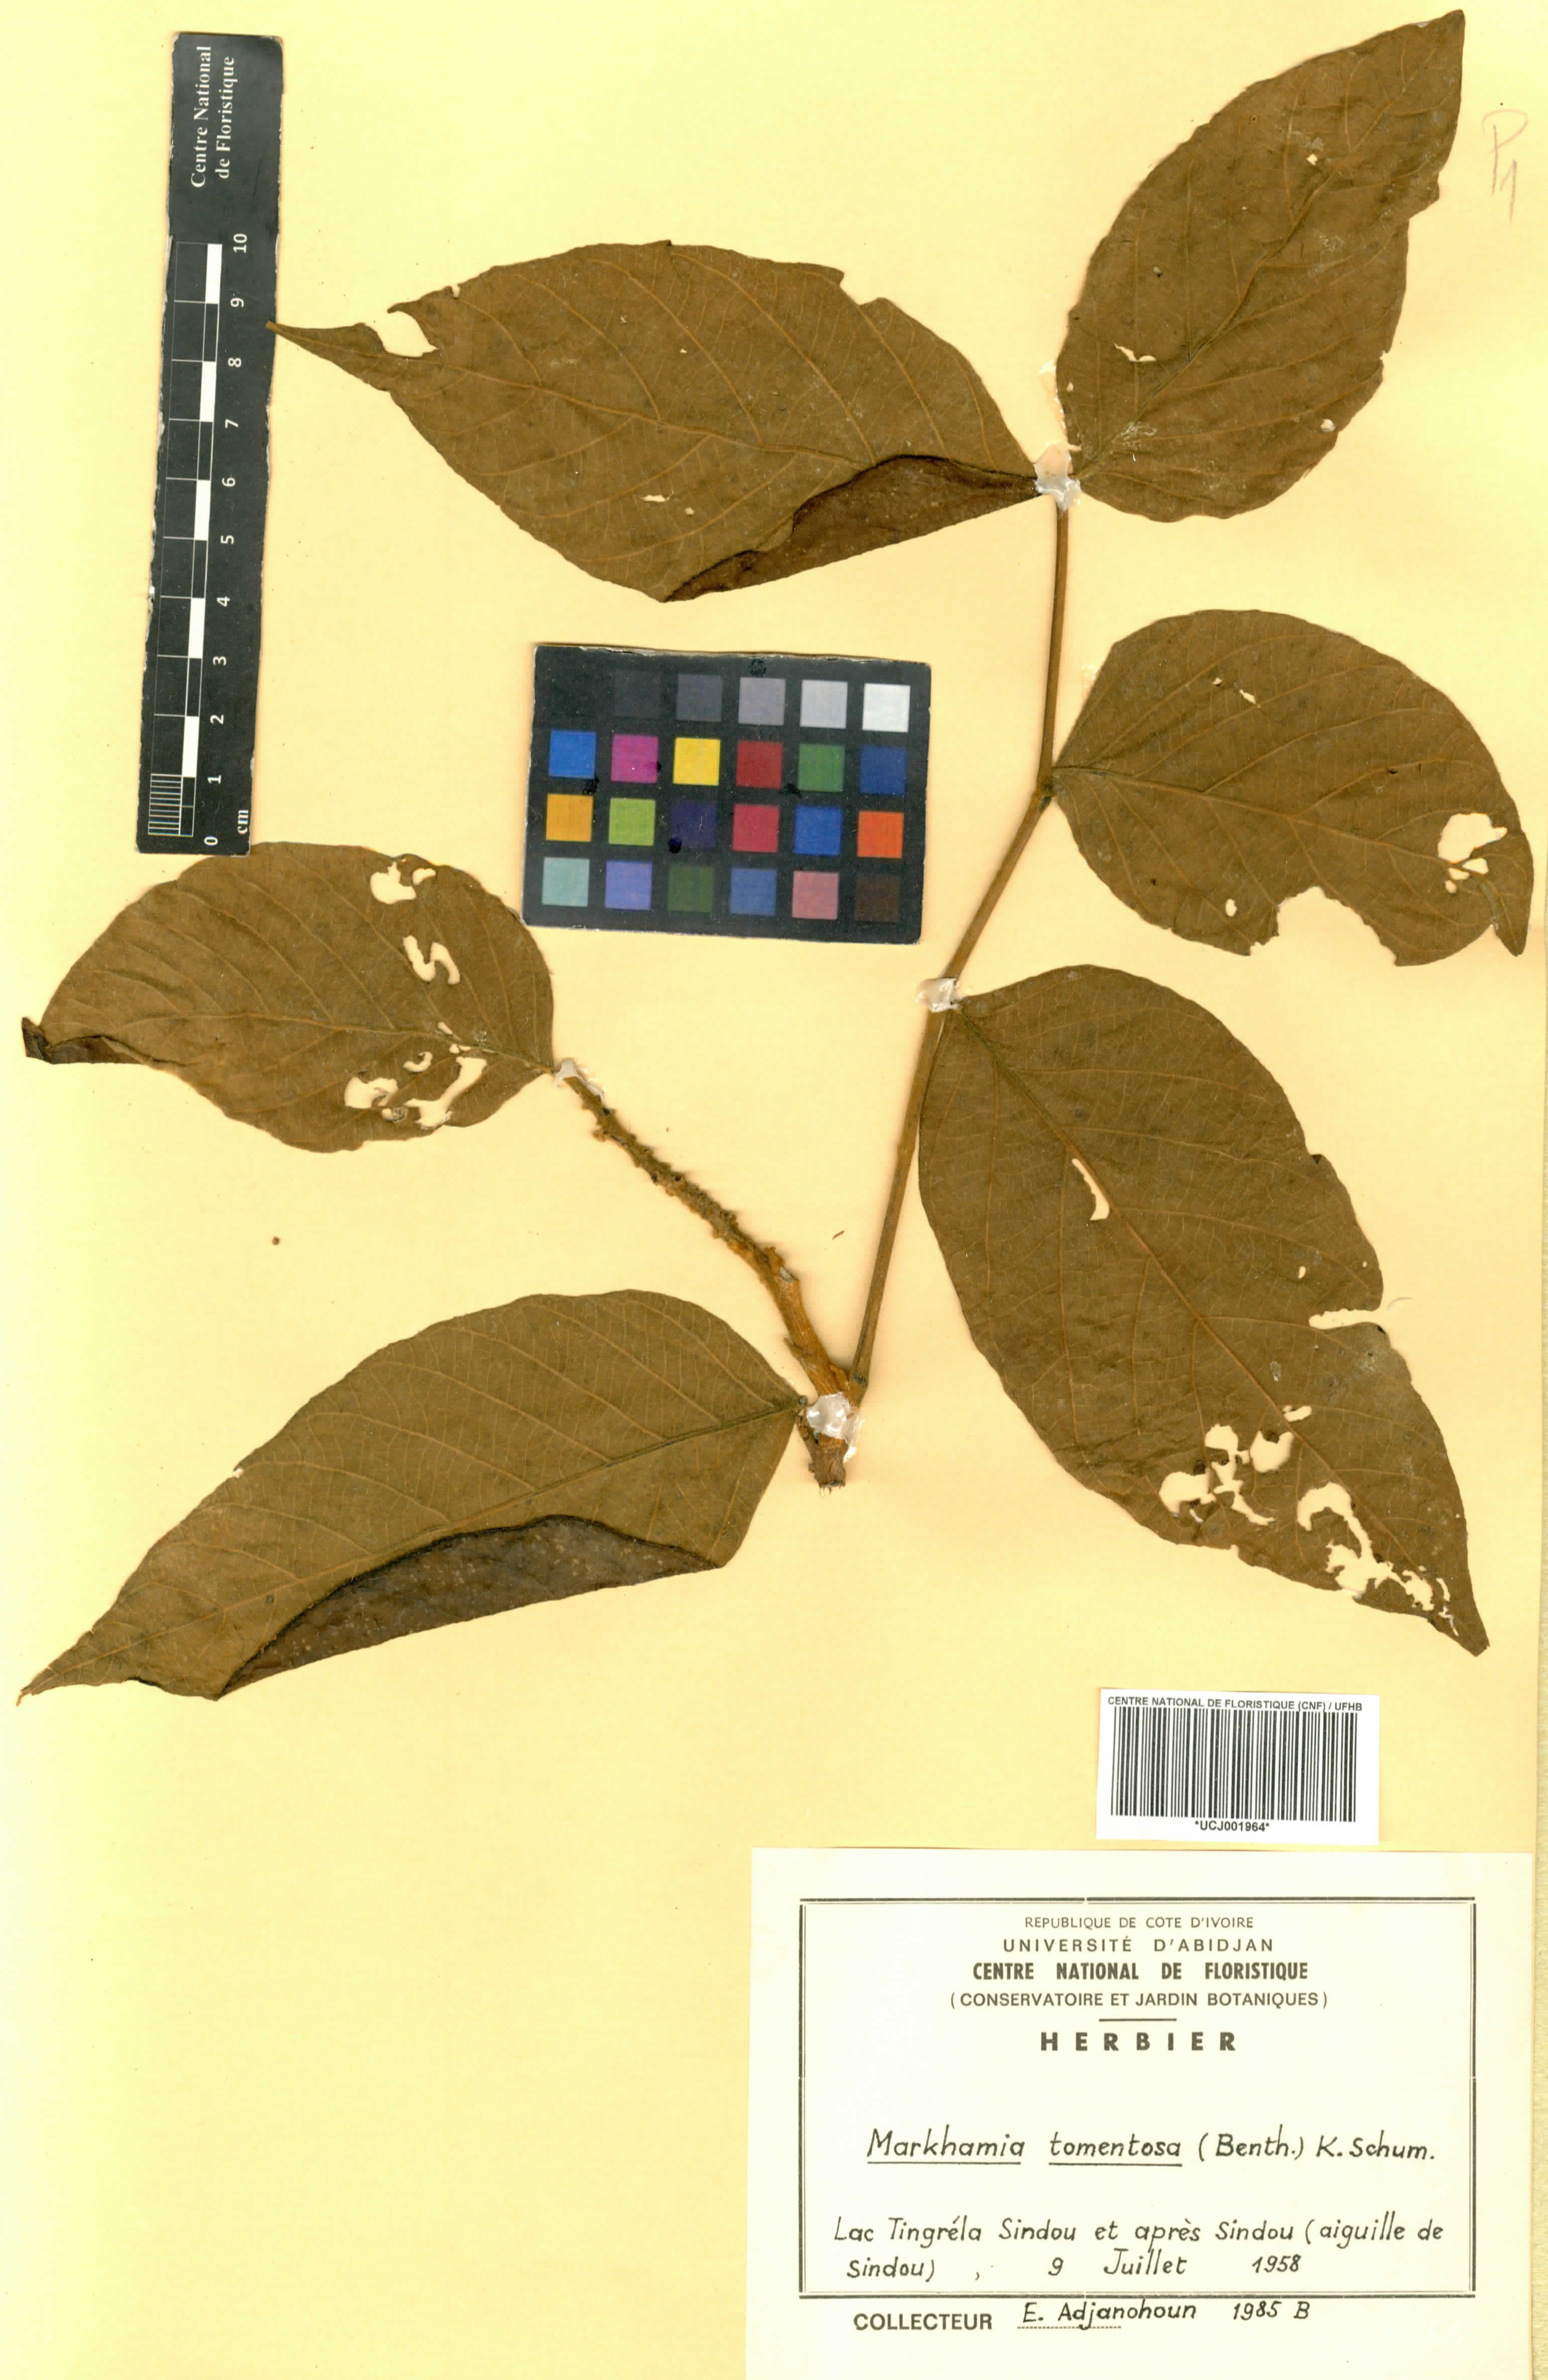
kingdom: Plantae
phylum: Tracheophyta
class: Magnoliopsida
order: Lamiales
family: Bignoniaceae
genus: Markhamia
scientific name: Markhamia tomentosa
